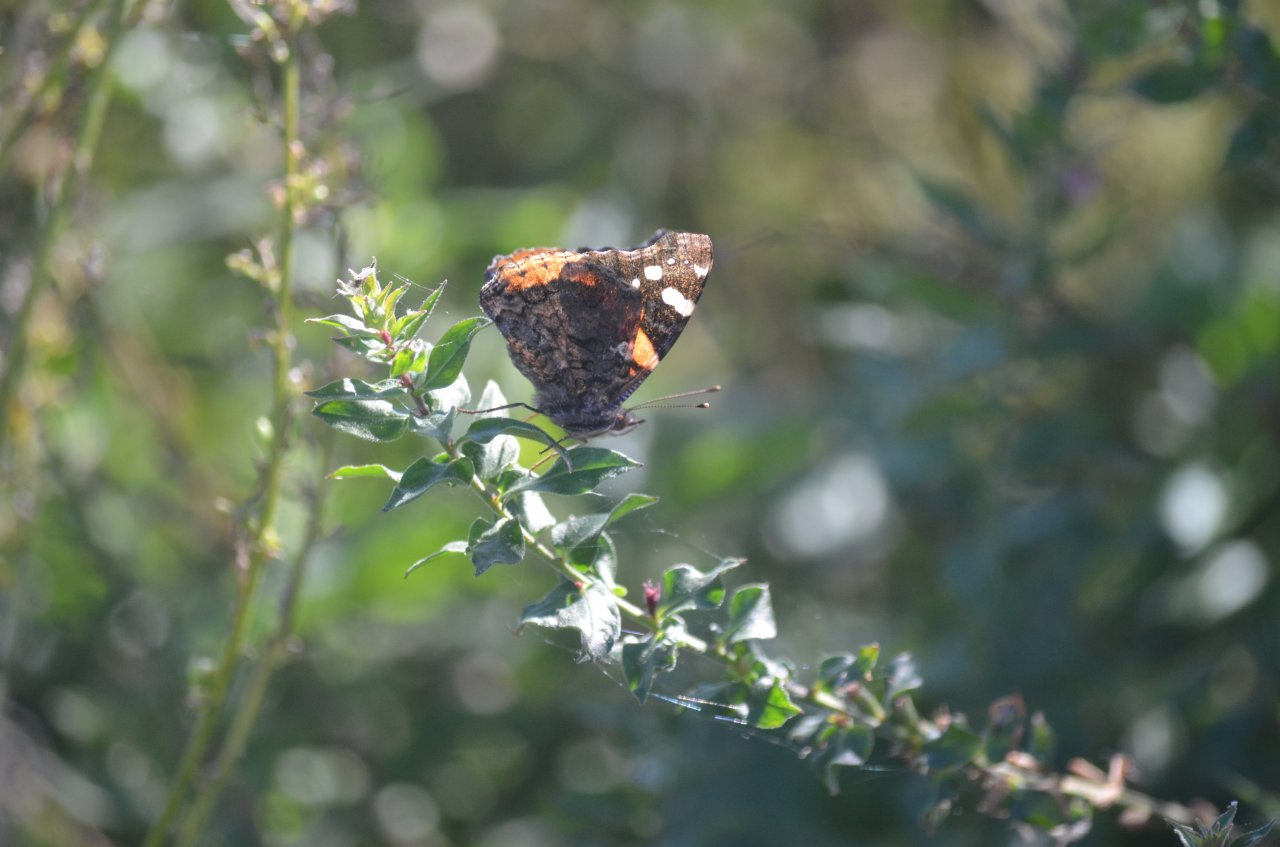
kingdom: Animalia
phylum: Arthropoda
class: Insecta
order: Lepidoptera
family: Nymphalidae
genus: Vanessa
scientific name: Vanessa atalanta
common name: Red Admiral
